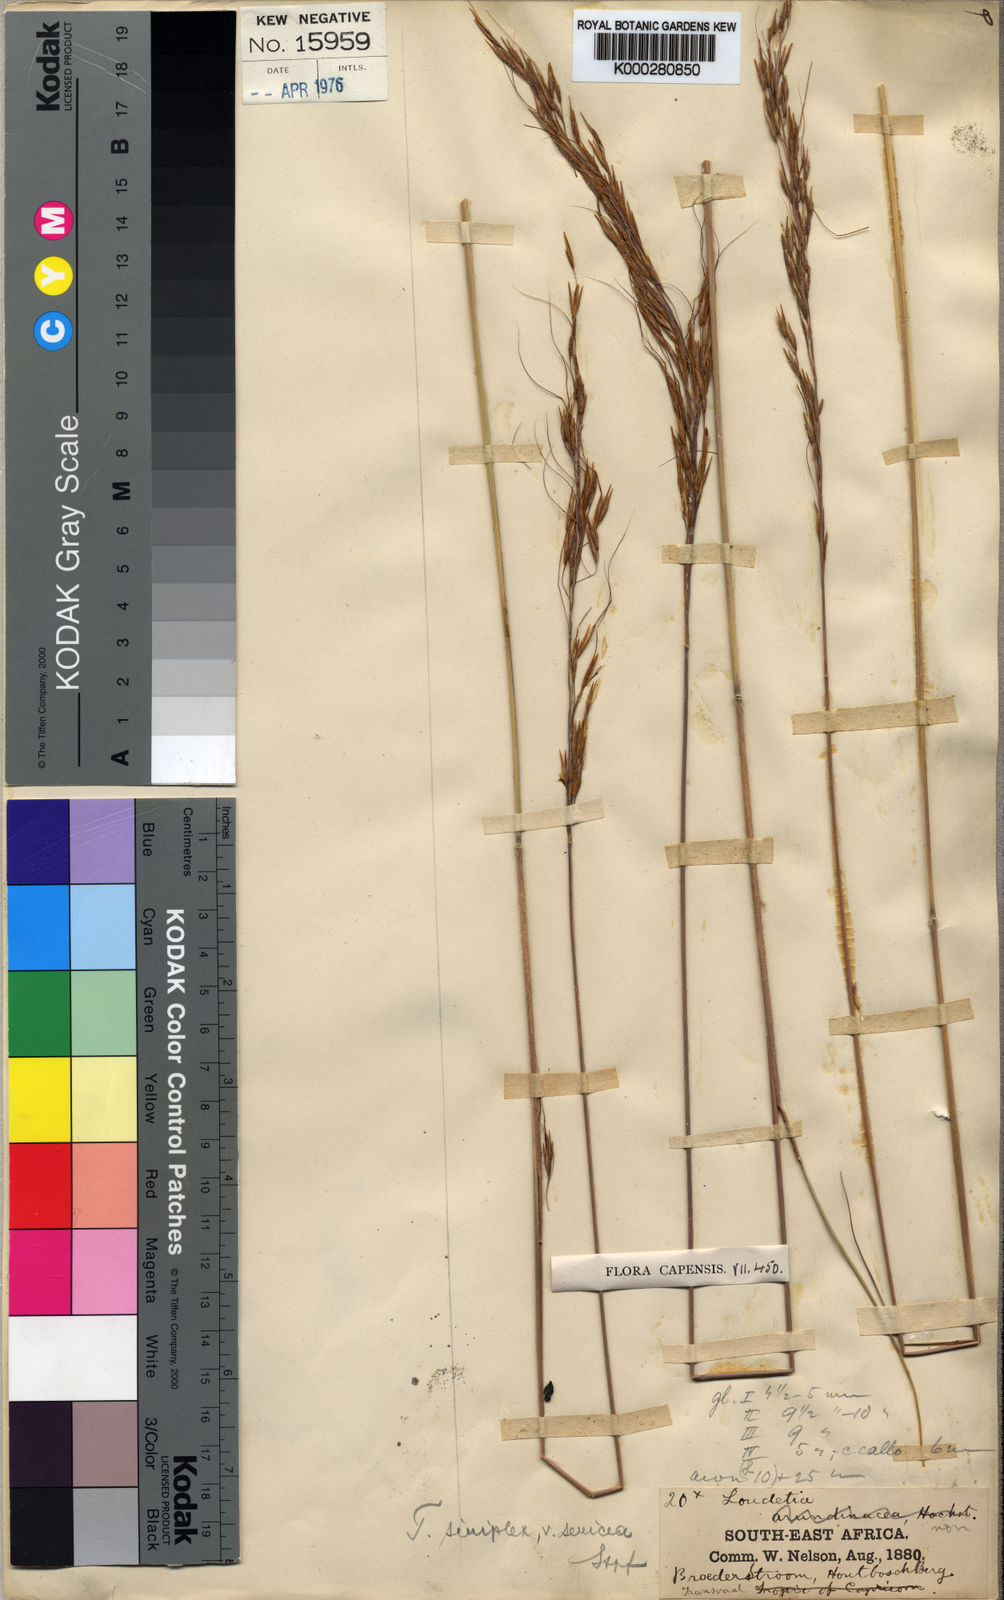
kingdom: Plantae
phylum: Tracheophyta
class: Liliopsida
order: Poales
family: Poaceae
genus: Loudetia
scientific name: Loudetia simplex
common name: Common russet grass
